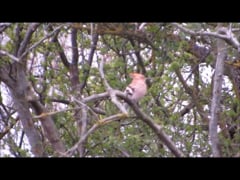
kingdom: Animalia
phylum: Chordata
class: Aves
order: Bucerotiformes
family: Upupidae
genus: Upupa
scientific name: Upupa epops
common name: Eurasian hoopoe
